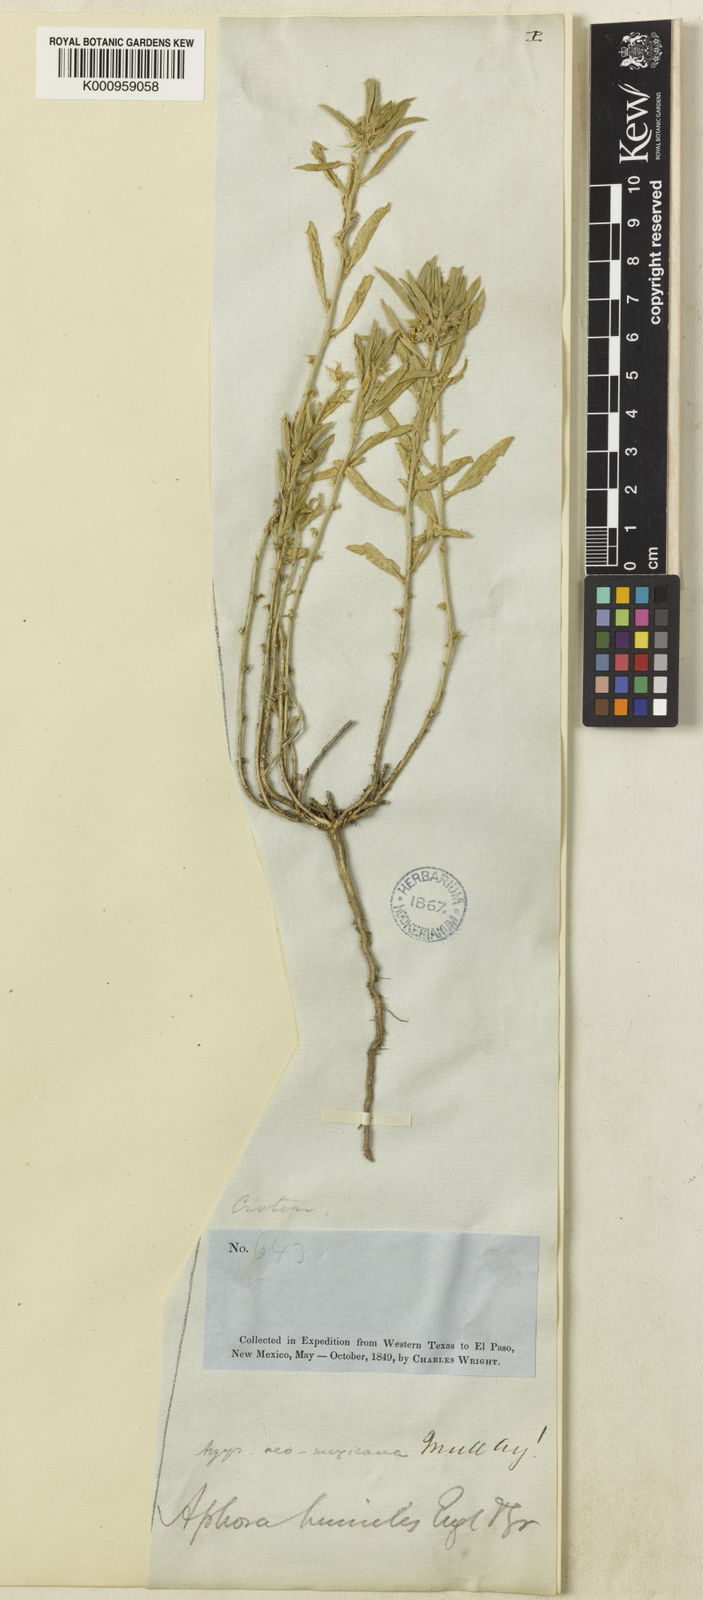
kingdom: Plantae
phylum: Tracheophyta
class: Magnoliopsida
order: Malpighiales
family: Euphorbiaceae
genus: Ditaxis
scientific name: Ditaxis
